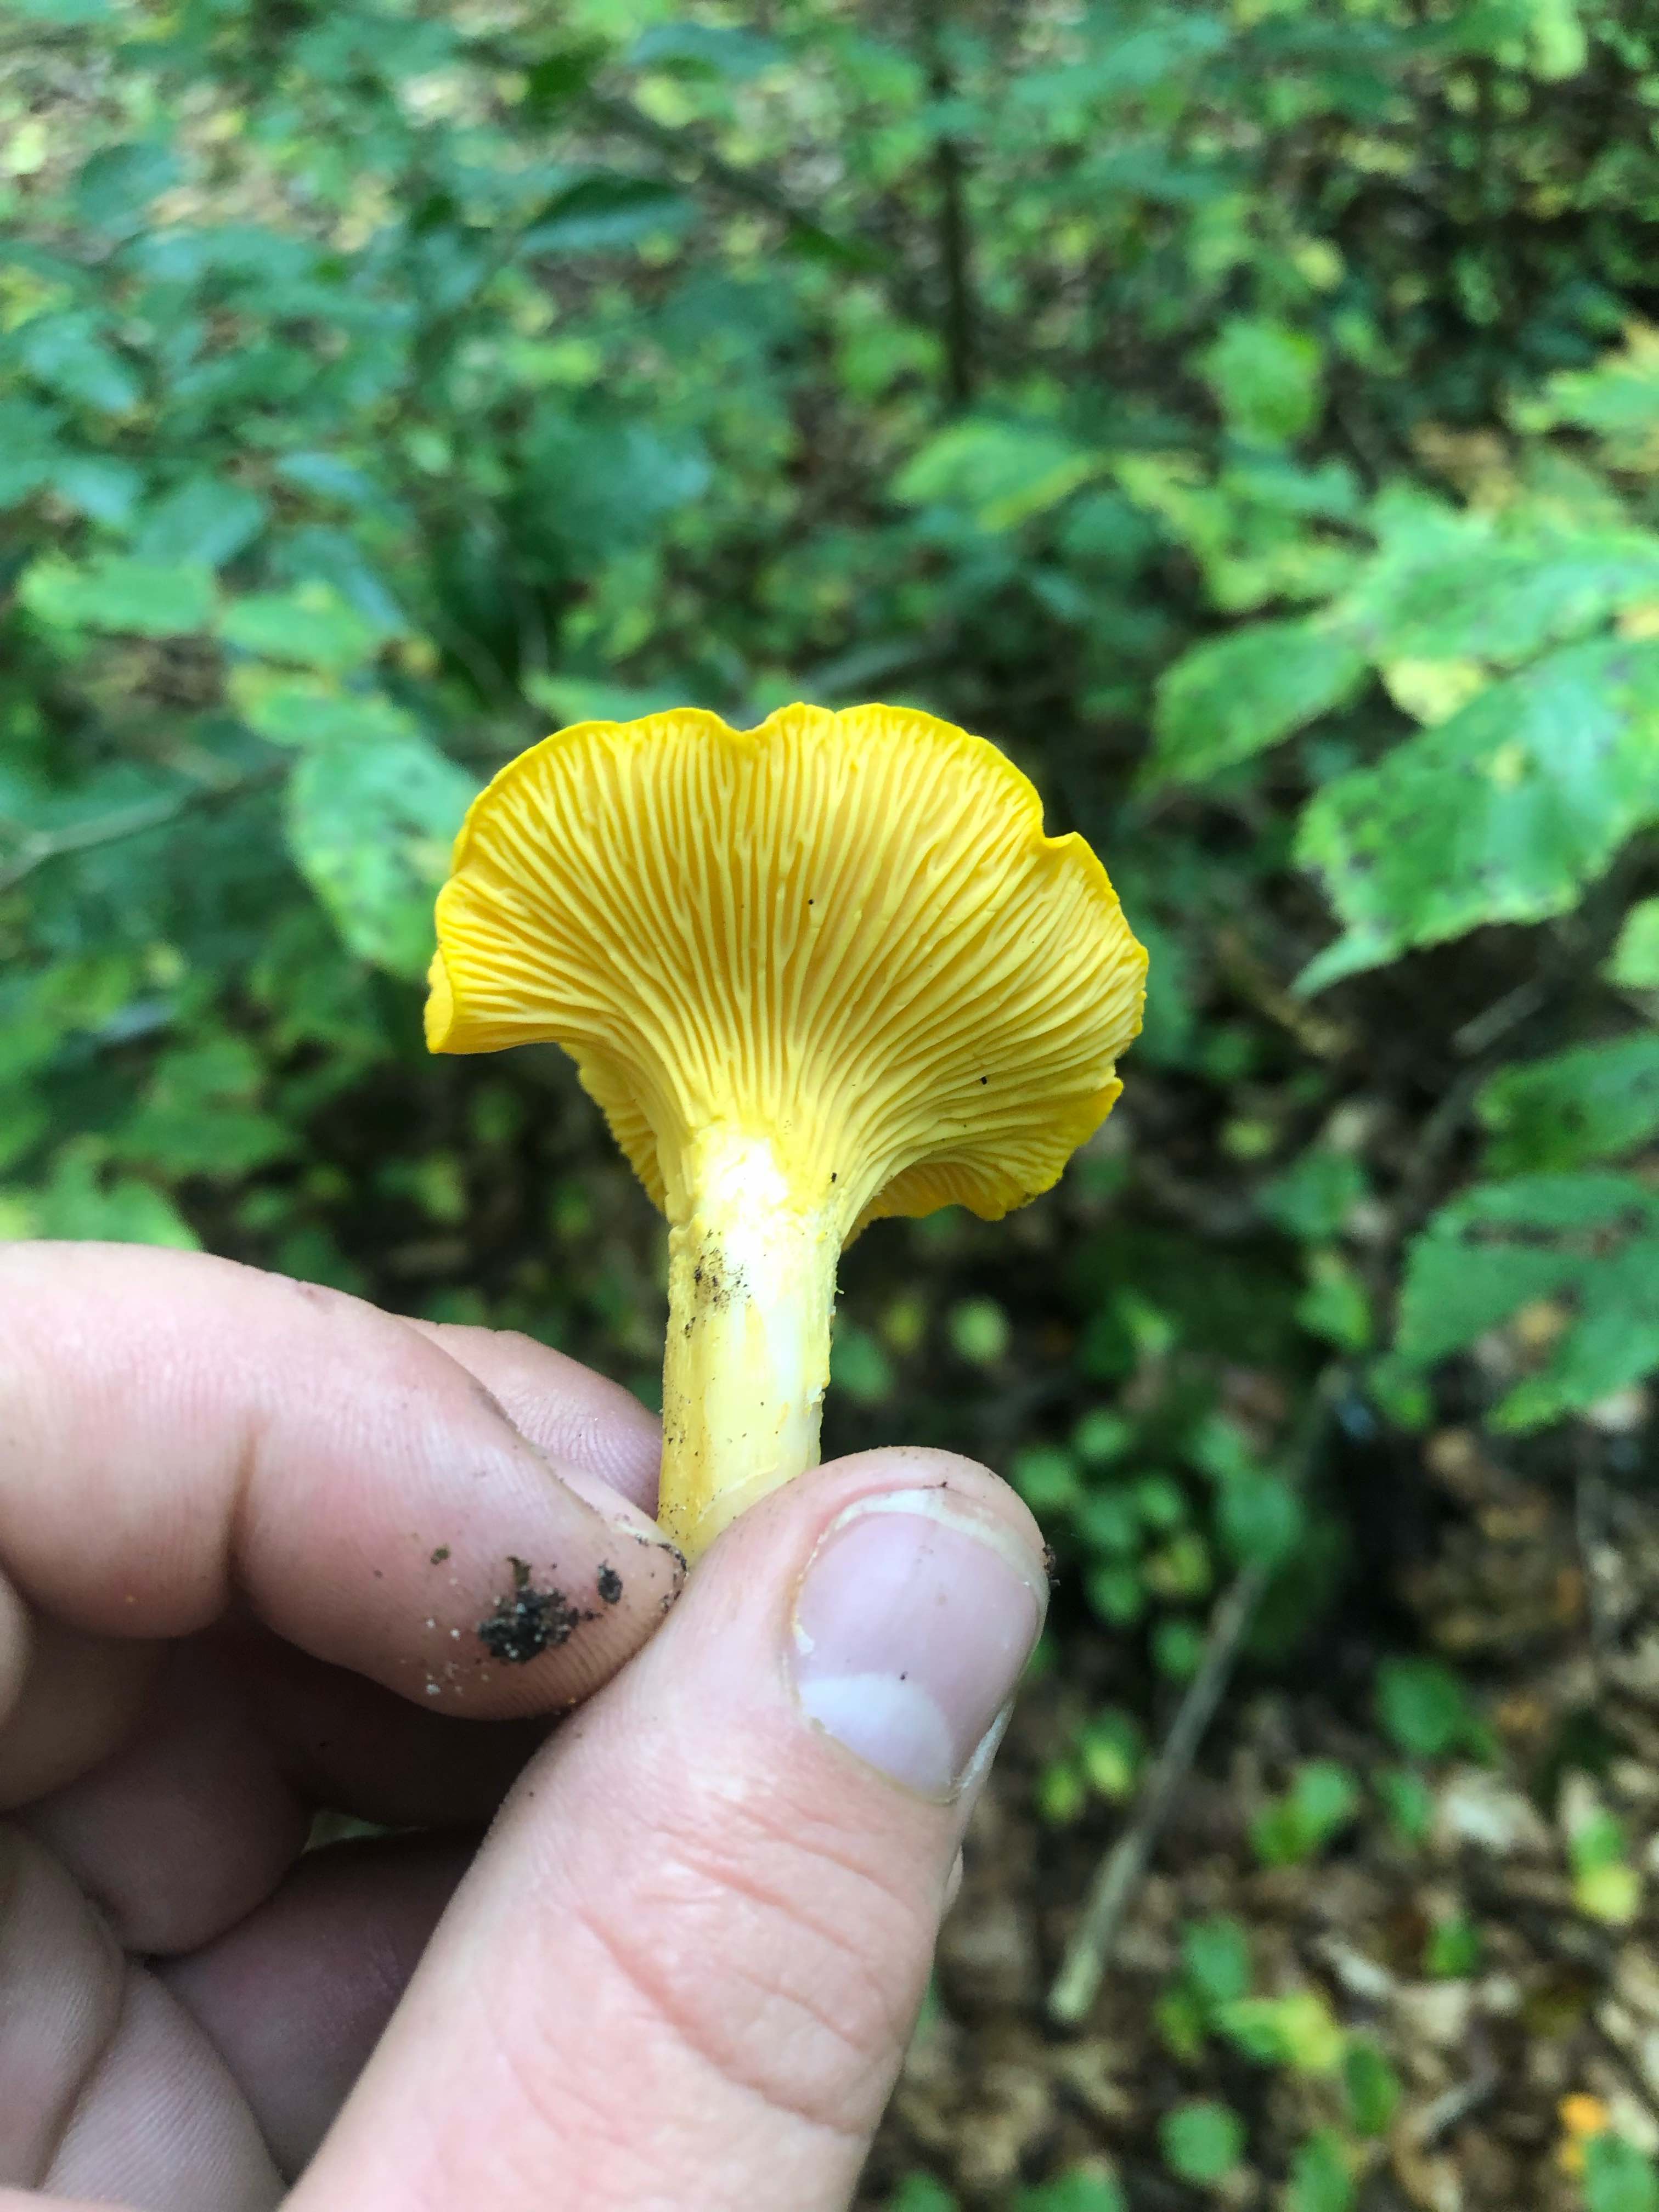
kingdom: Fungi
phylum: Basidiomycota
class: Agaricomycetes
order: Cantharellales
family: Hydnaceae
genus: Cantharellus
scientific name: Cantharellus cibarius
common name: almindelig kantarel
